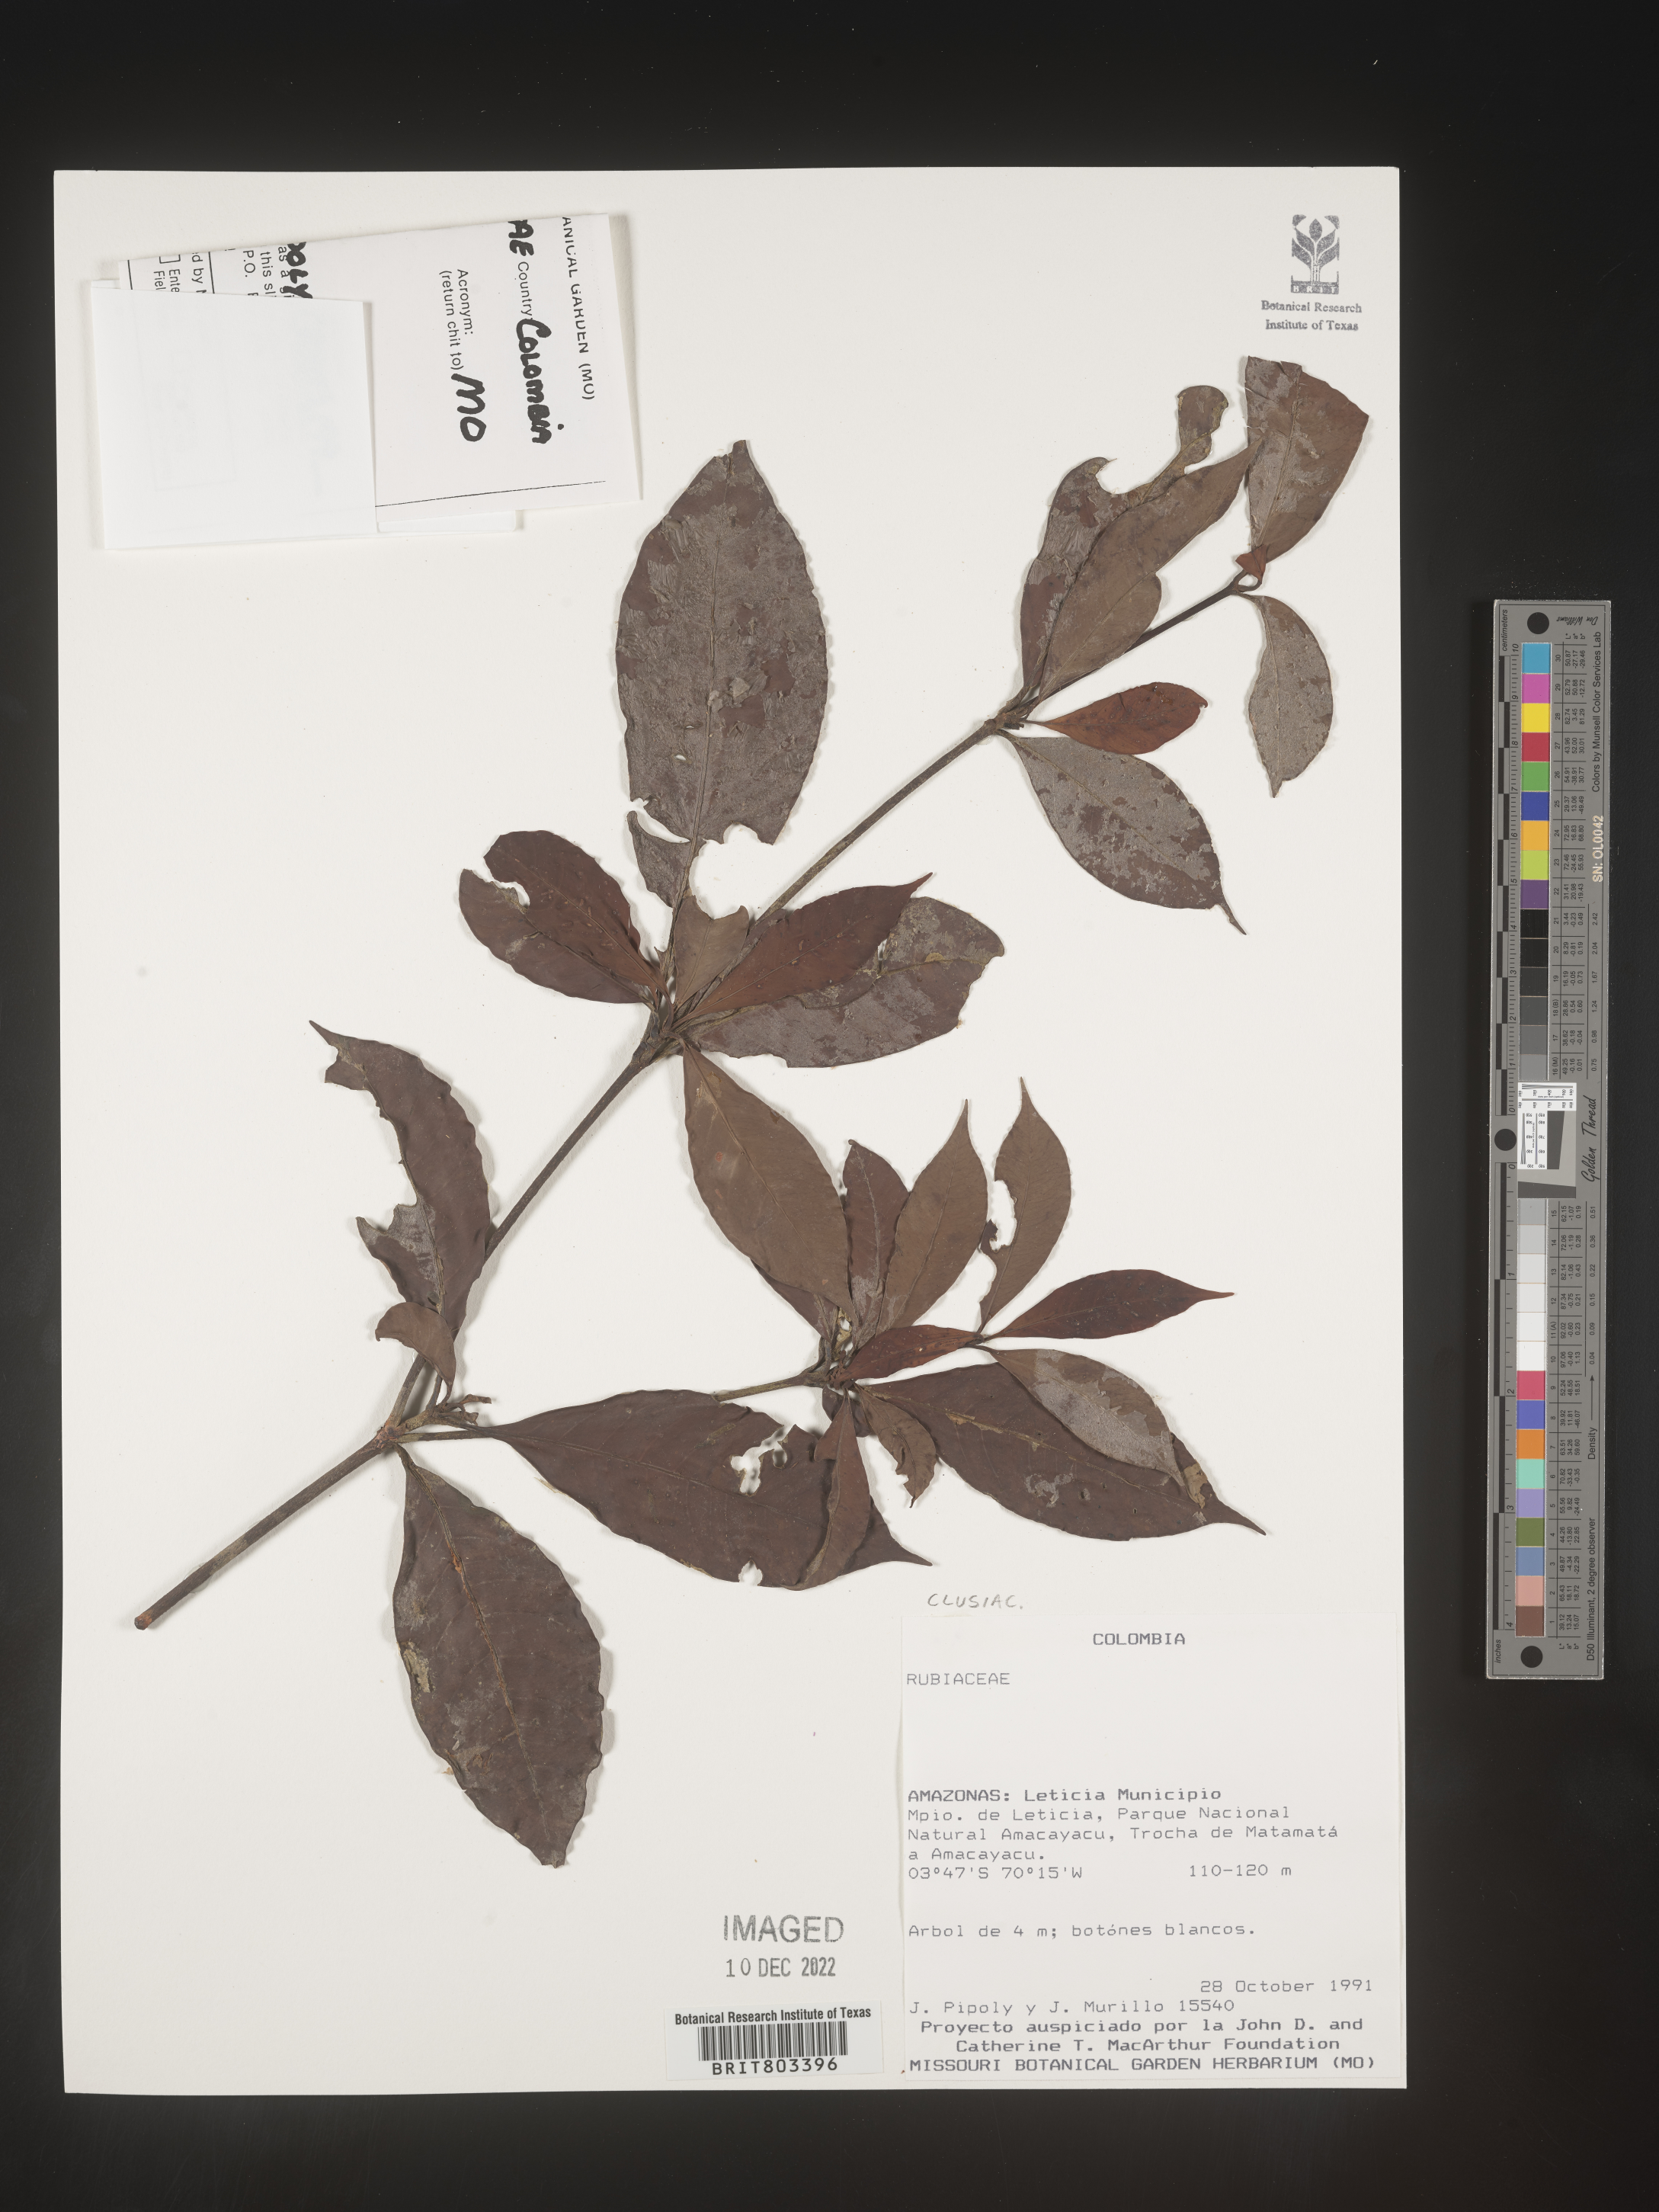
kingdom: Plantae
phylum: Tracheophyta
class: Magnoliopsida
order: Malpighiales
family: Clusiaceae
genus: Tovomita
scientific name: Tovomita
